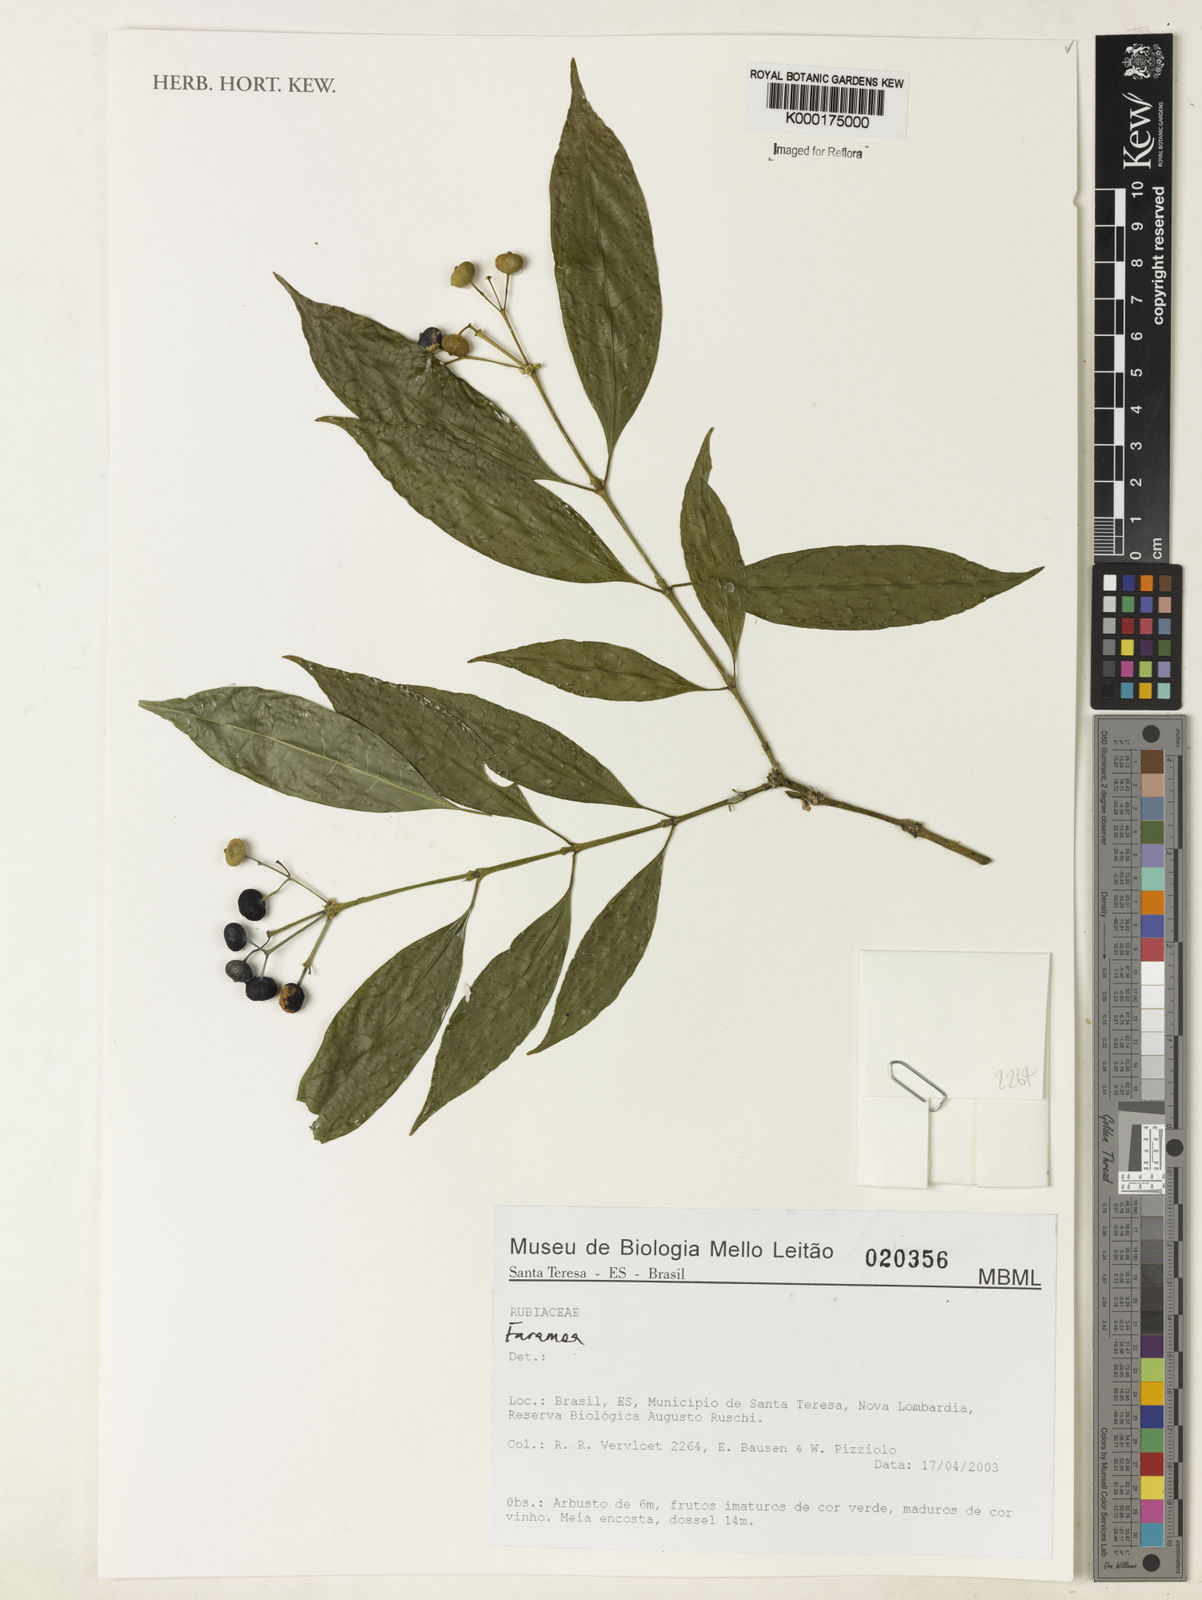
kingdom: Plantae
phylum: Tracheophyta
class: Magnoliopsida
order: Gentianales
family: Rubiaceae
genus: Faramea
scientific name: Faramea
